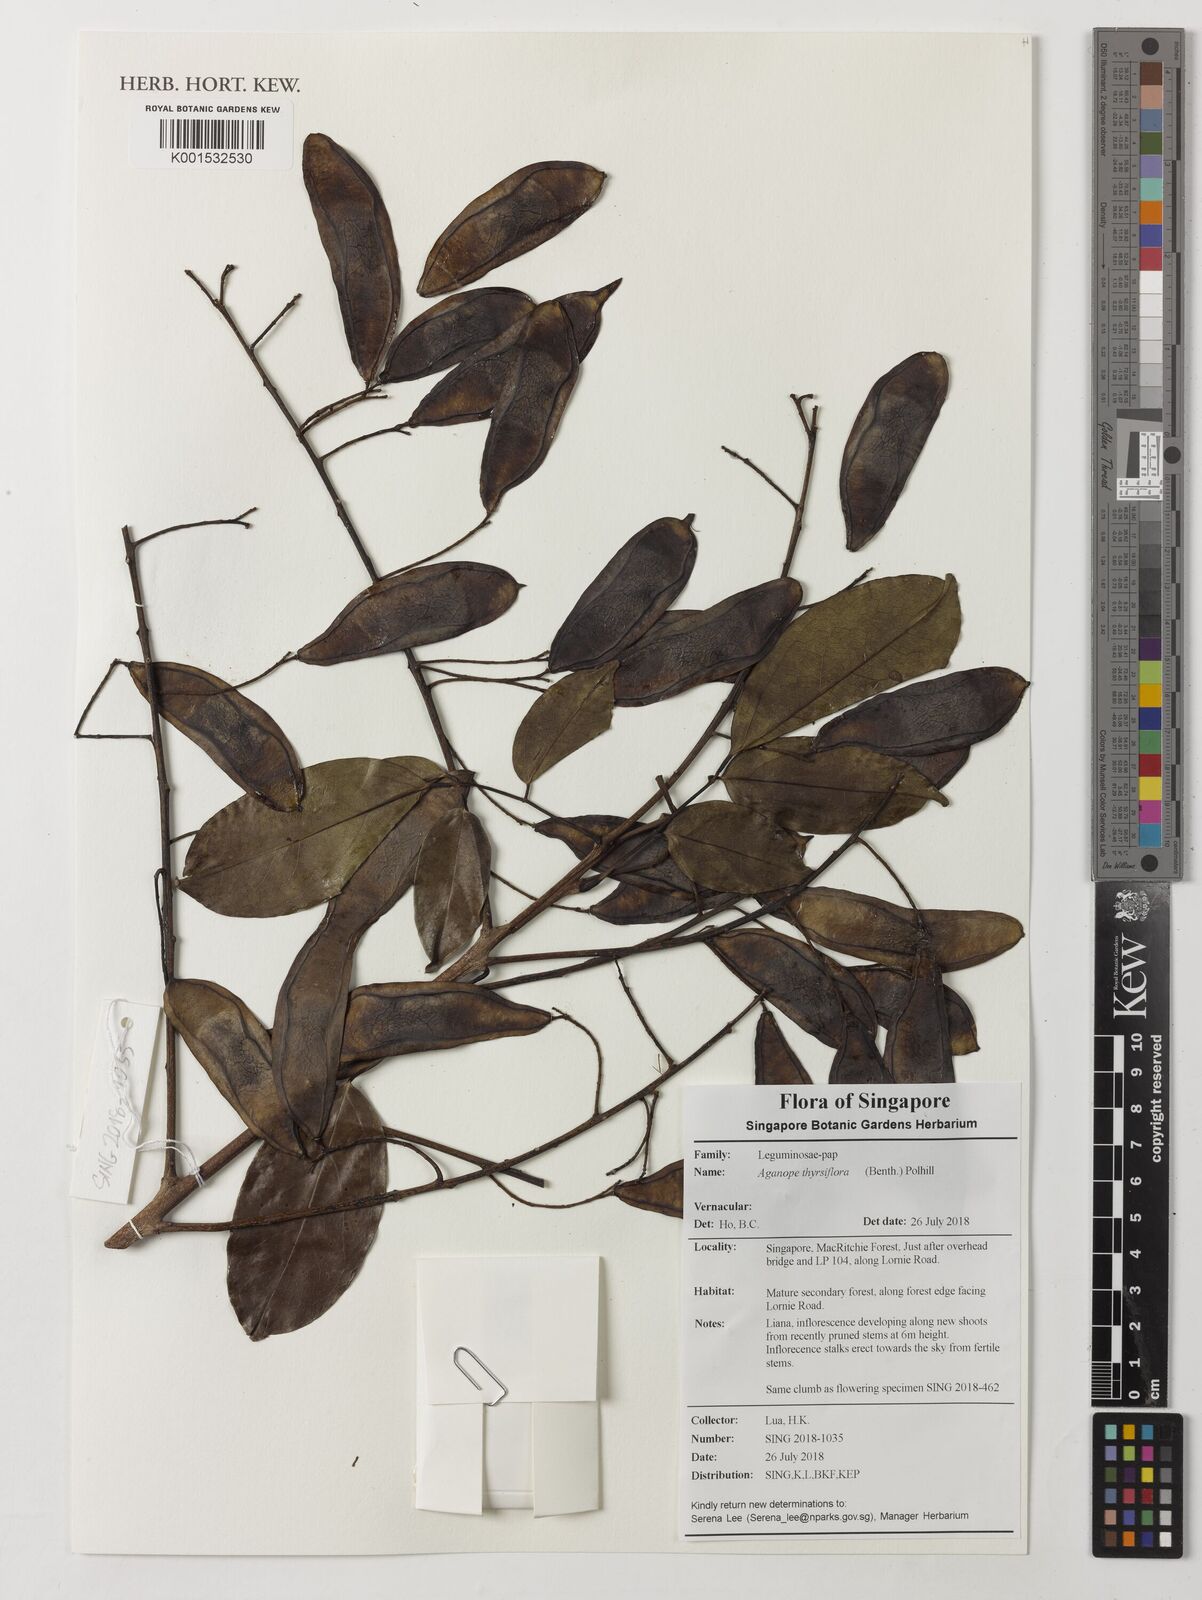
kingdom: Plantae
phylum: Tracheophyta
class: Magnoliopsida
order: Fabales
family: Fabaceae
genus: Aganope
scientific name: Aganope thyrsiflora
